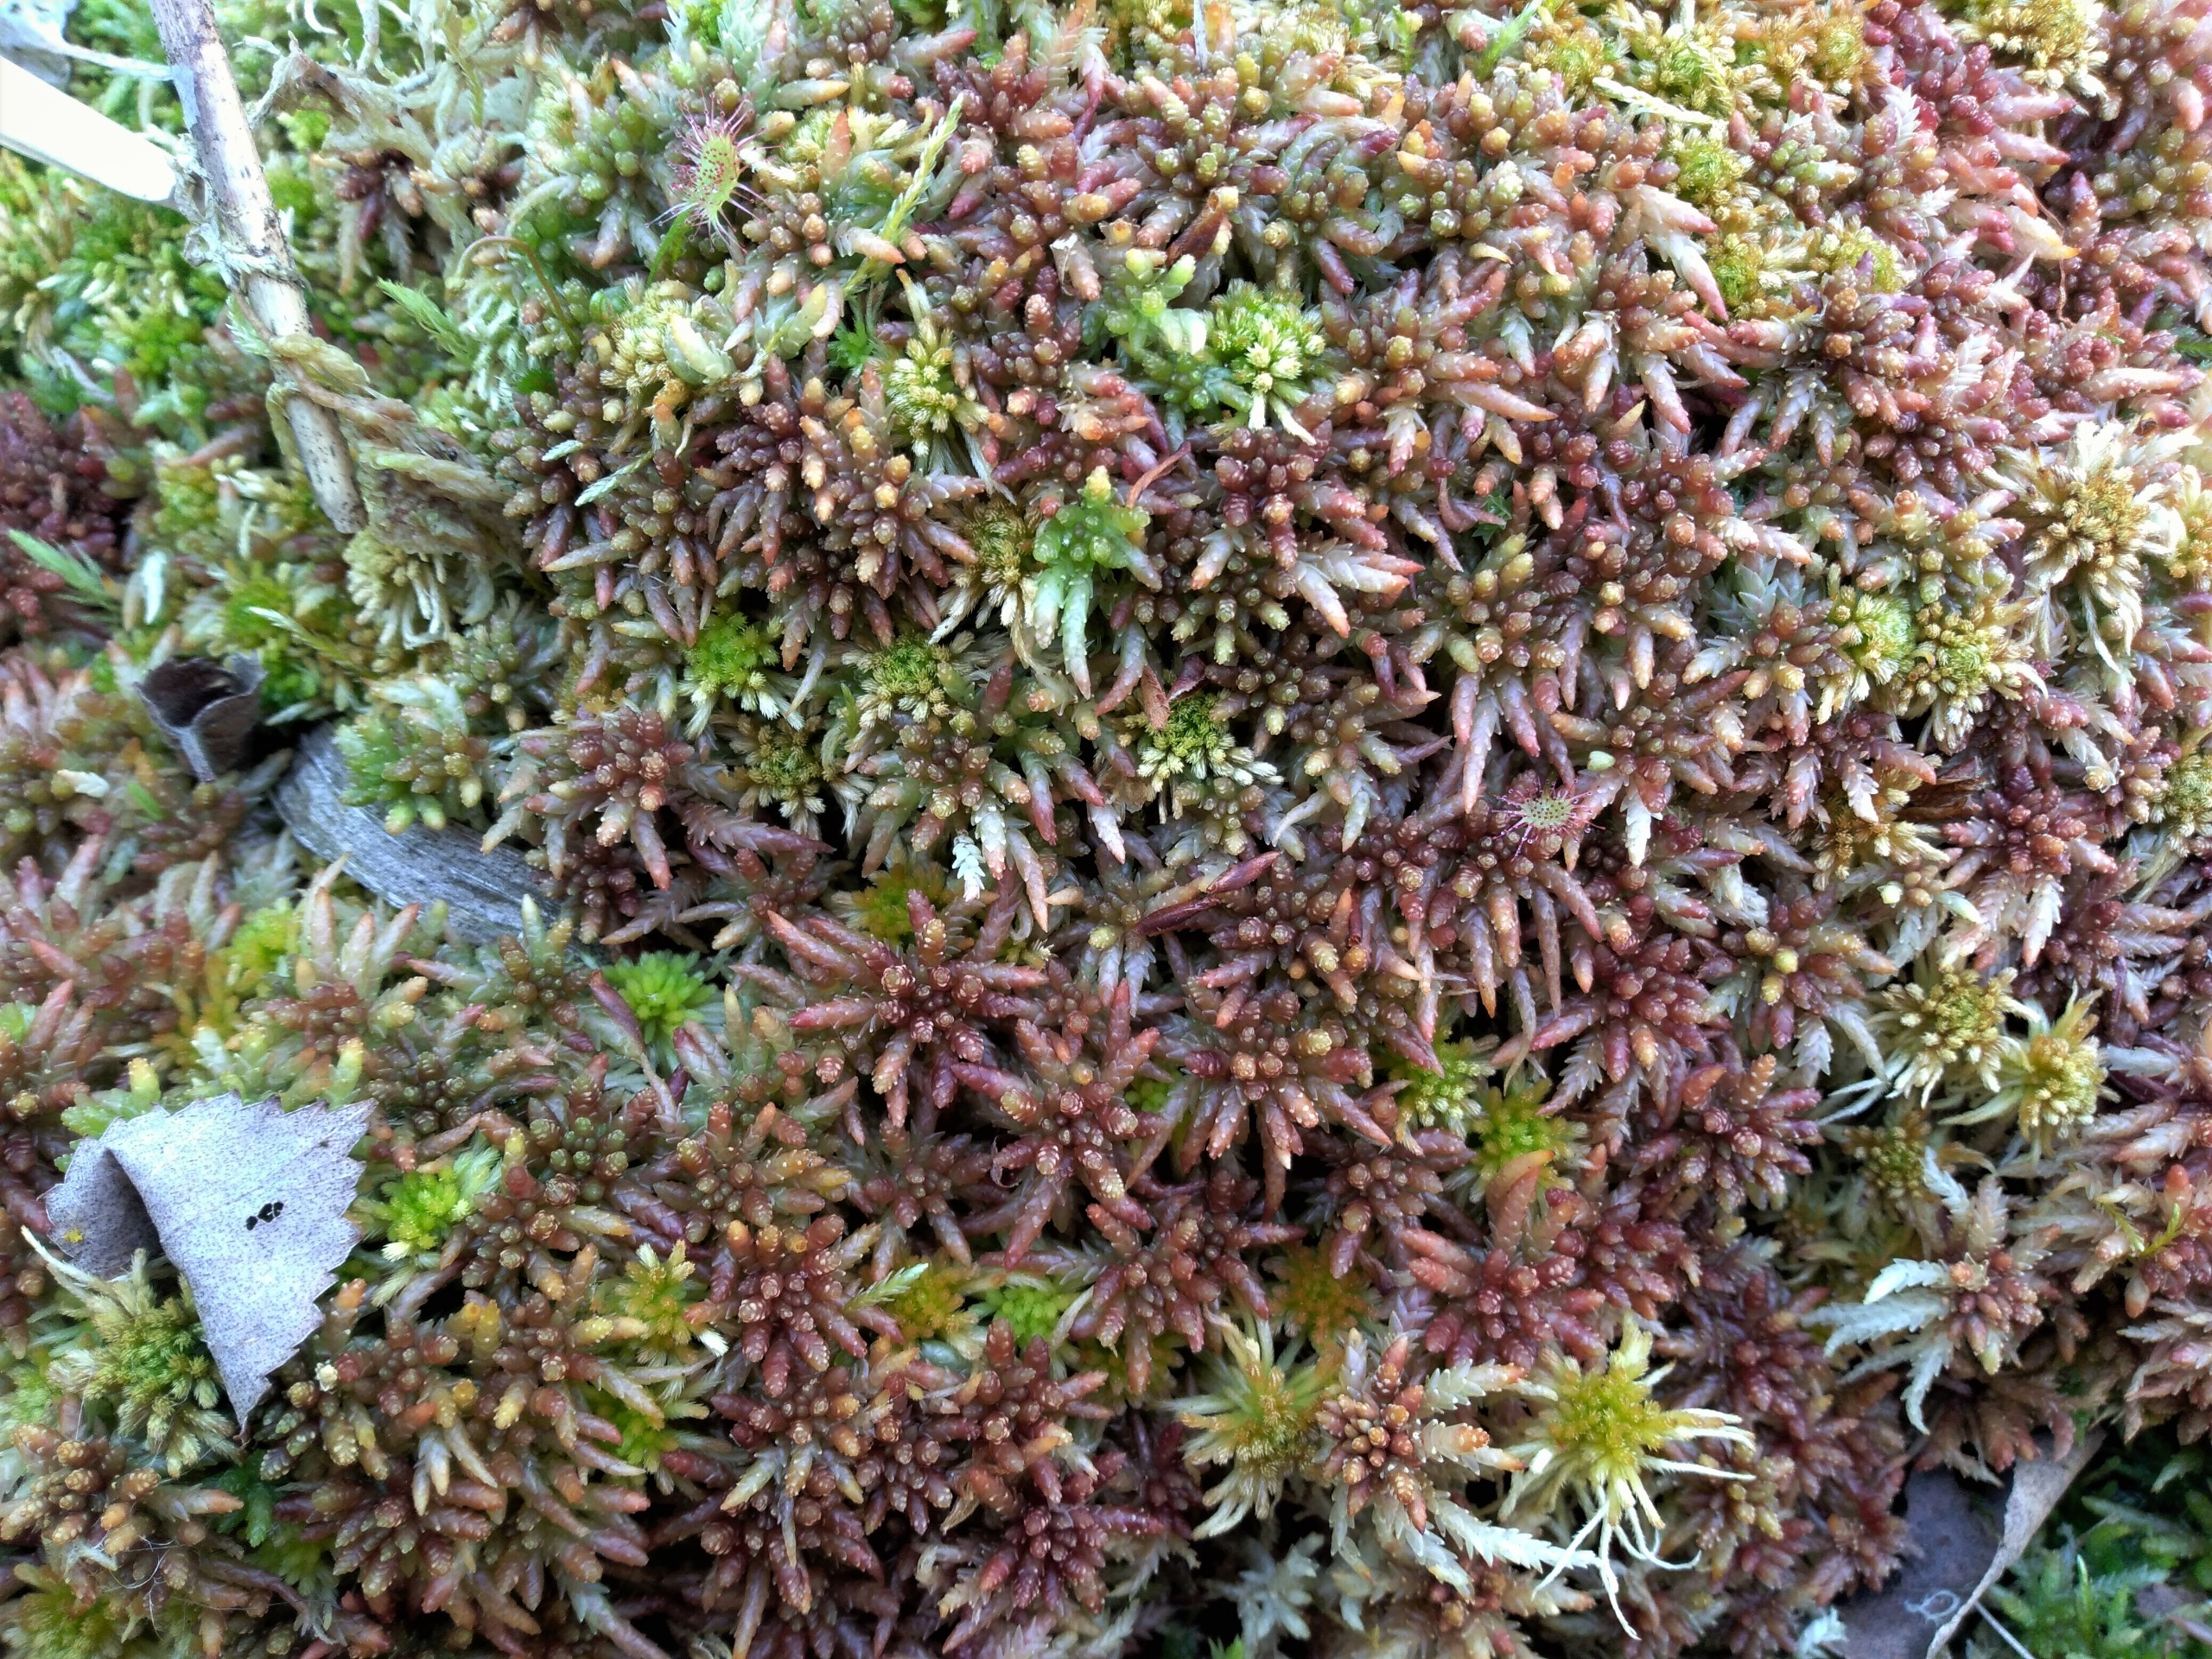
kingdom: Plantae
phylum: Bryophyta
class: Sphagnopsida
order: Sphagnales
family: Sphagnaceae
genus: Sphagnum
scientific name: Sphagnum divinum
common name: Rød tørvemos (delvist)
